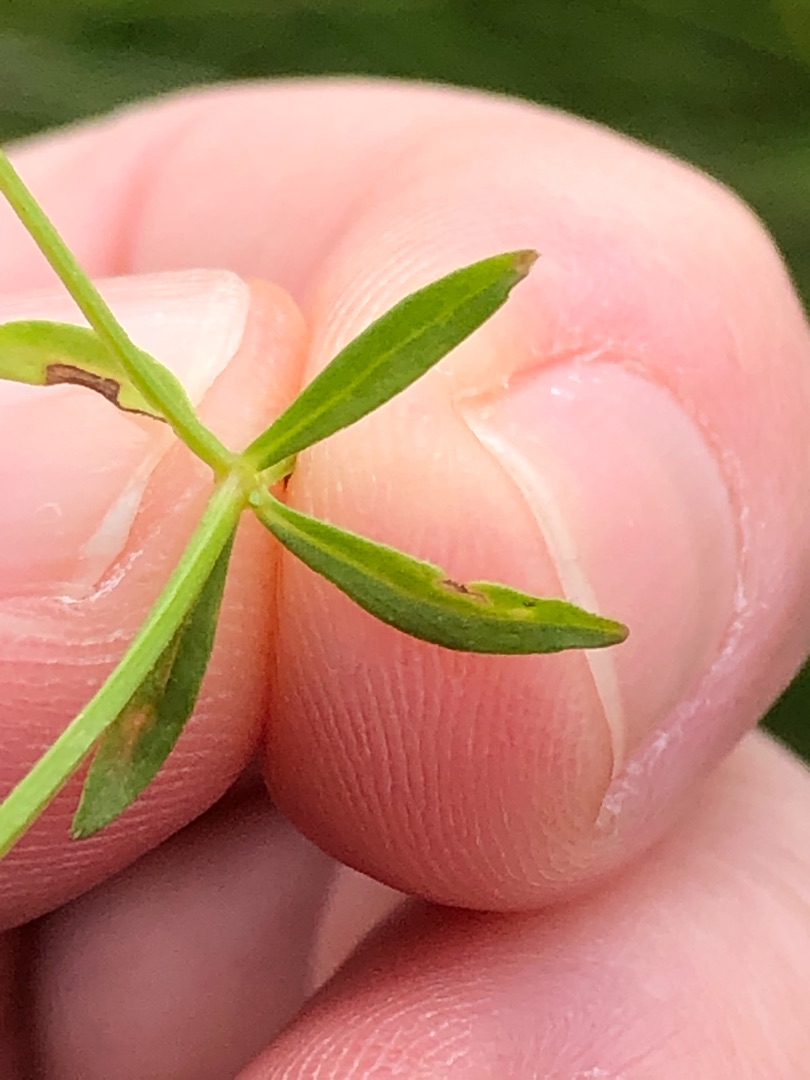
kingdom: Plantae
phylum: Tracheophyta
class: Magnoliopsida
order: Gentianales
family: Rubiaceae
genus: Galium
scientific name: Galium palustre
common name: Kær-snerre
